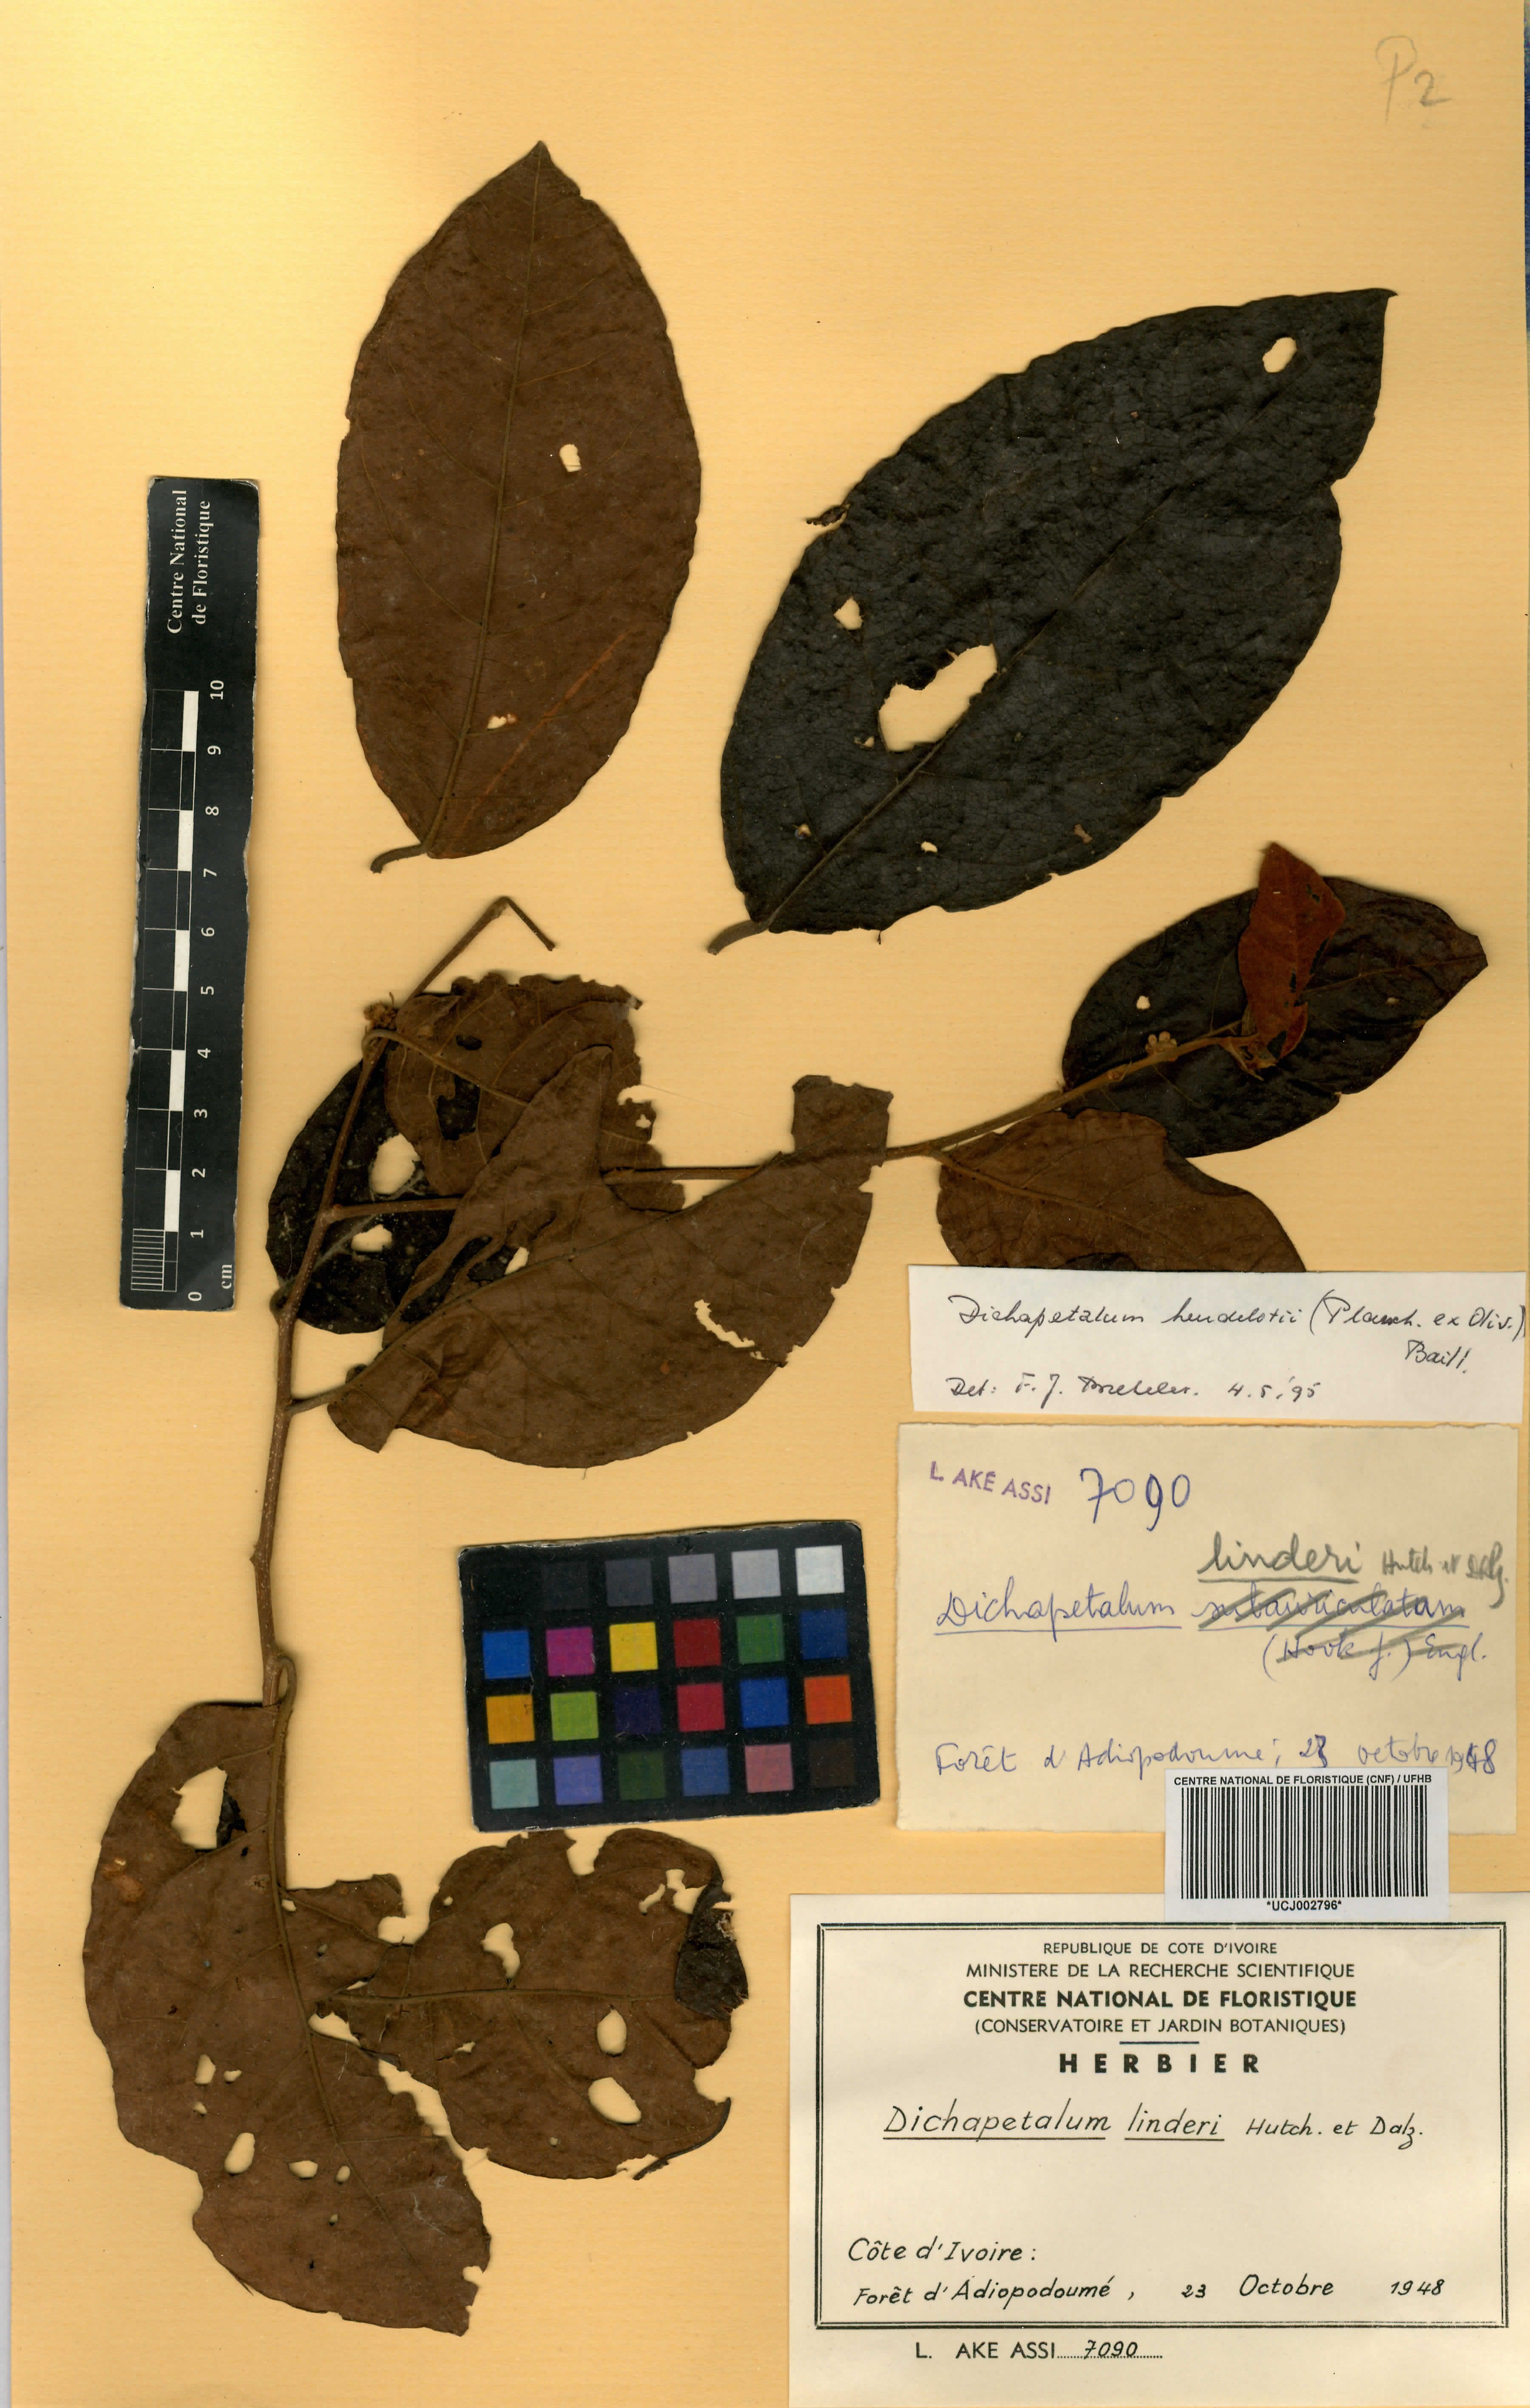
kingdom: Plantae
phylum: Tracheophyta
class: Magnoliopsida
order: Malpighiales
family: Dichapetalaceae
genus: Dichapetalum
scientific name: Dichapetalum heudelotii
